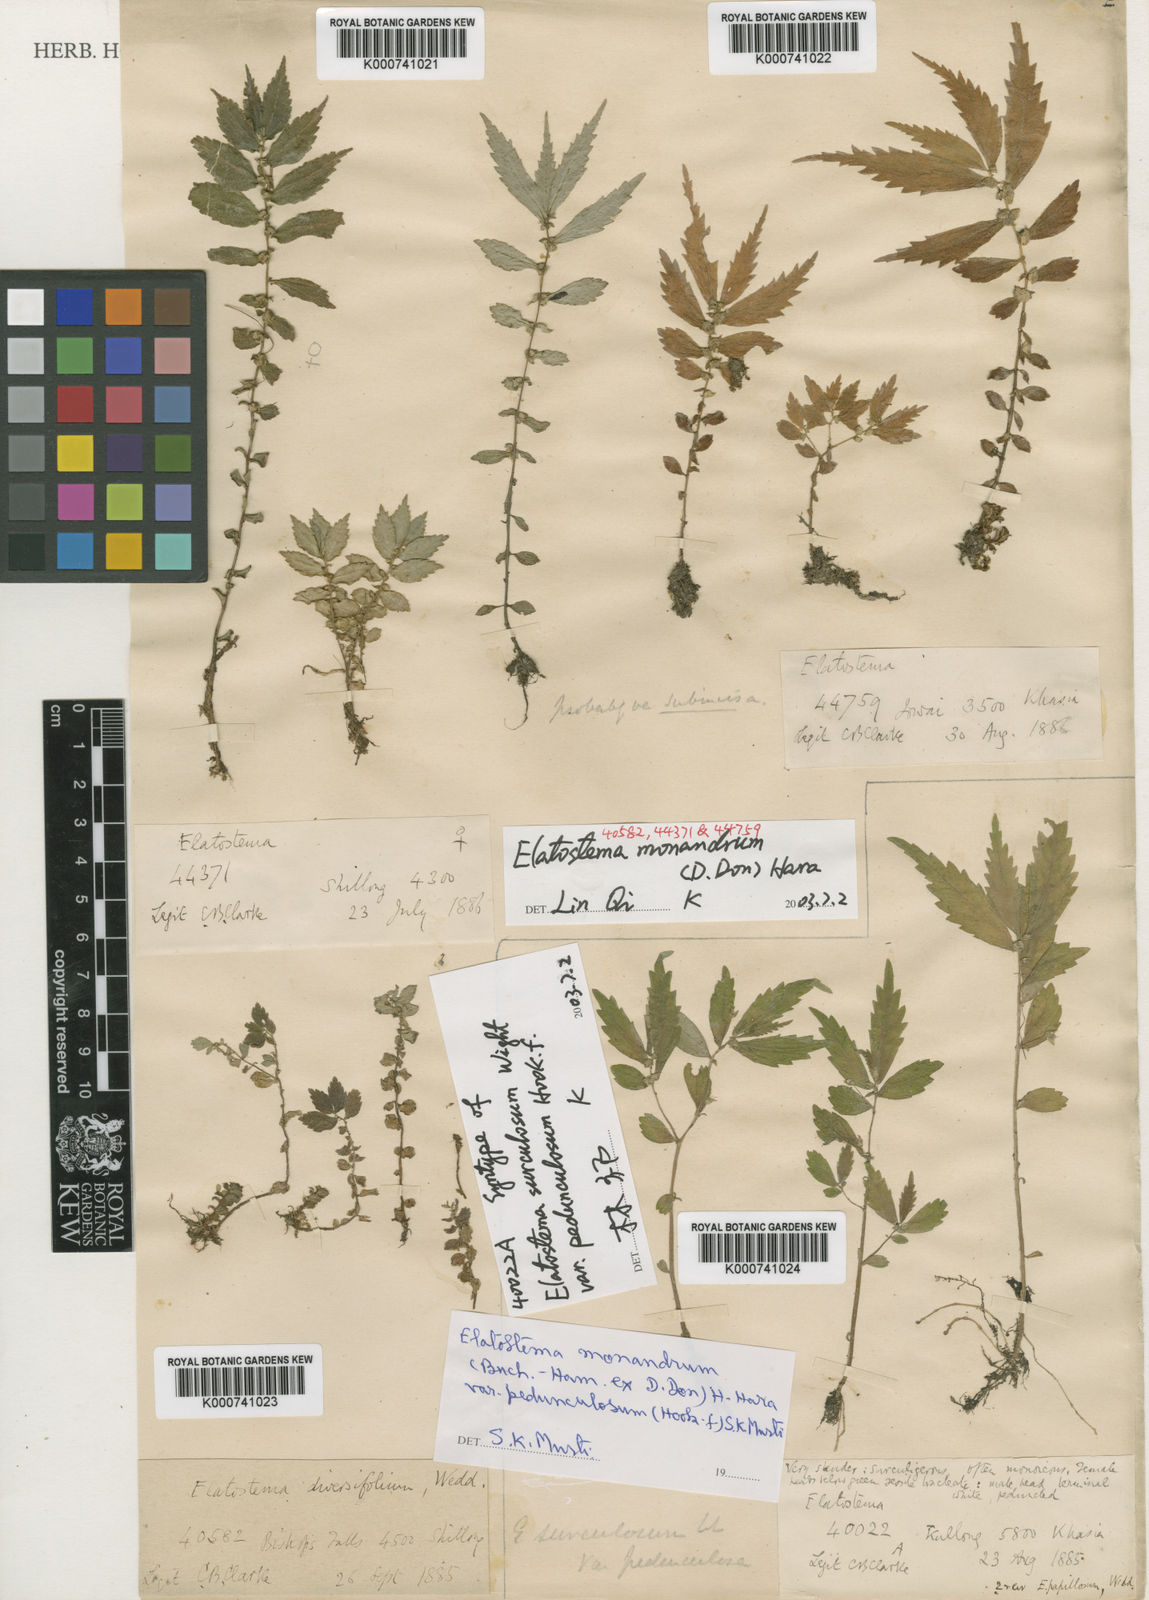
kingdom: Plantae
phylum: Tracheophyta
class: Magnoliopsida
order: Rosales
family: Urticaceae
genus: Elatostema
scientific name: Elatostema monandrum
